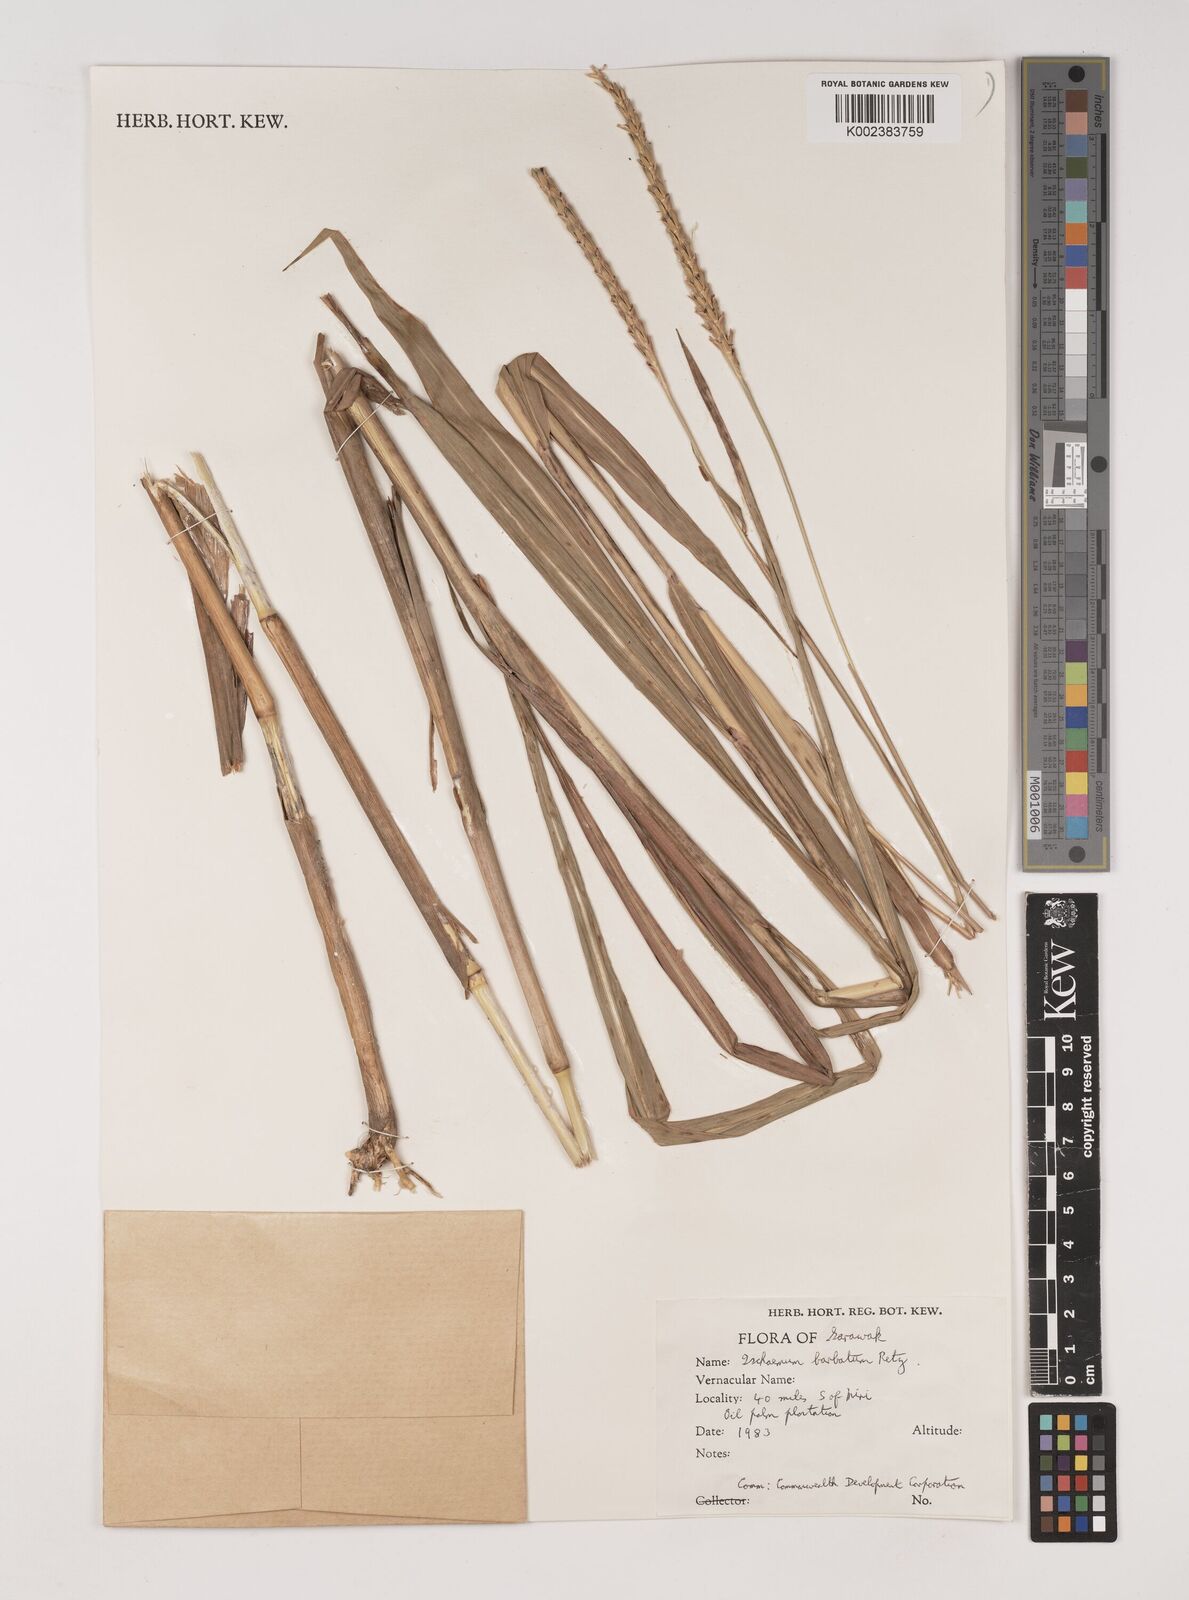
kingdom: Plantae
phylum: Tracheophyta
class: Liliopsida
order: Poales
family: Poaceae
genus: Ischaemum
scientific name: Ischaemum barbatum
